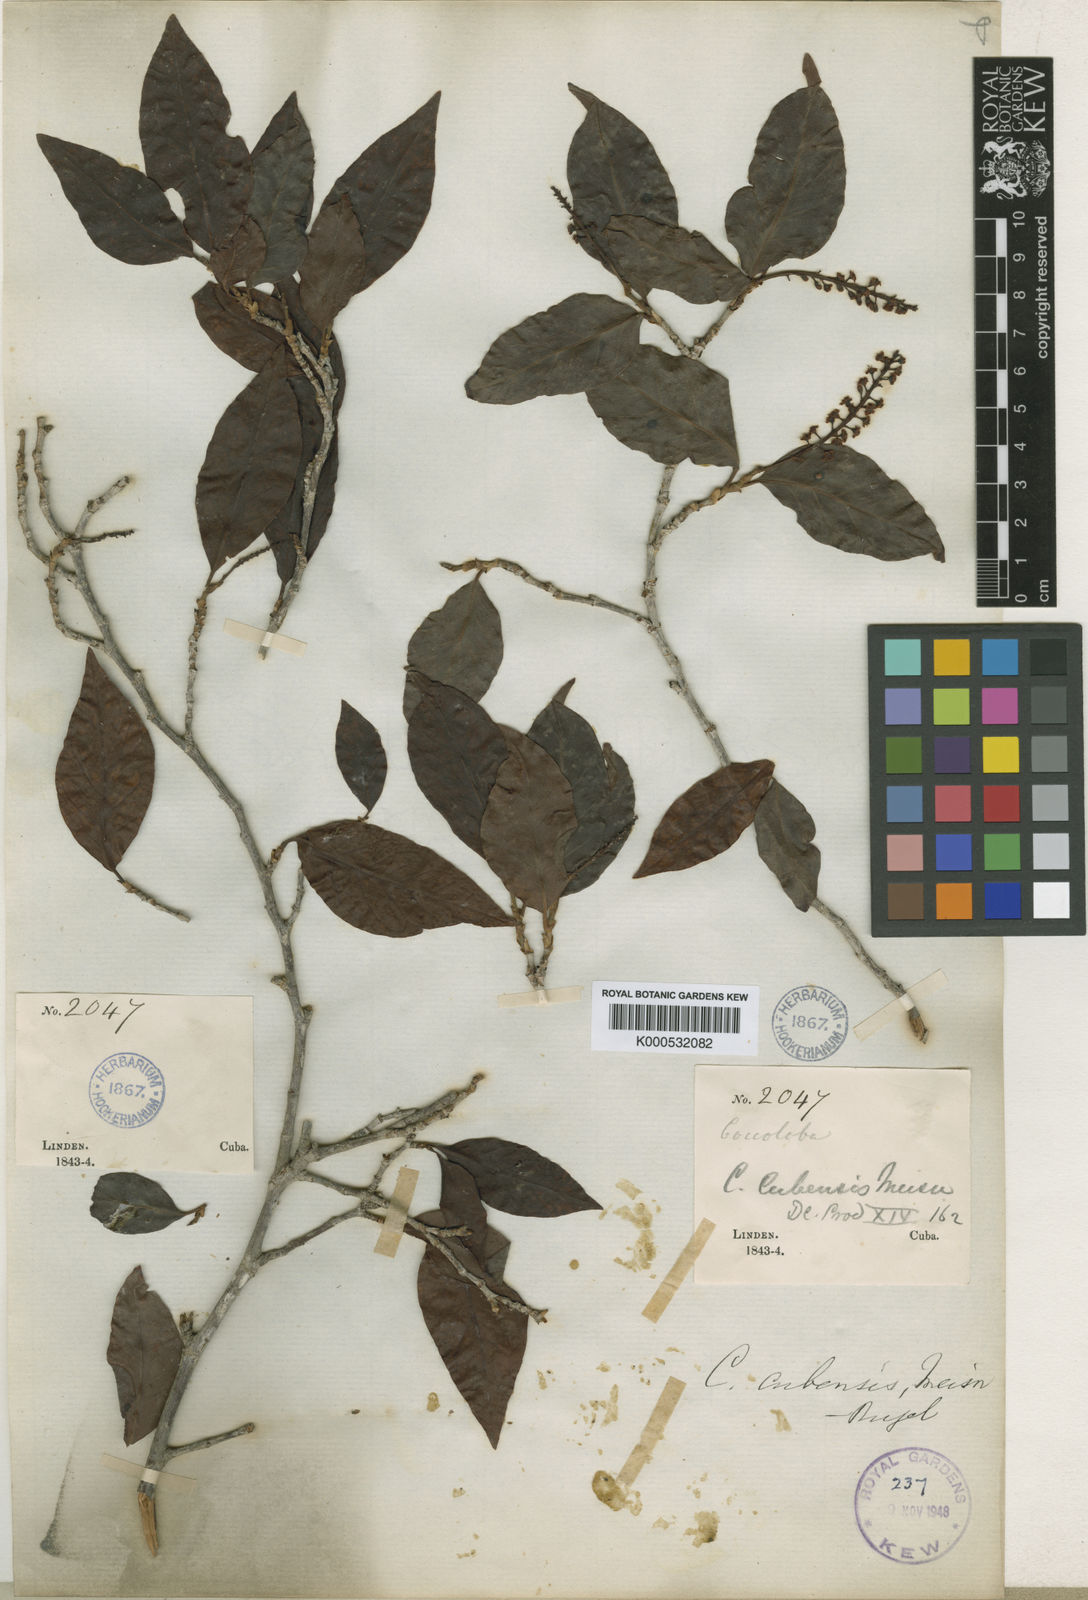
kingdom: Plantae
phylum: Tracheophyta
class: Magnoliopsida
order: Caryophyllales
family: Polygonaceae
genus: Coccoloba
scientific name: Coccoloba diversifolia
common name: Pigeon-plum
